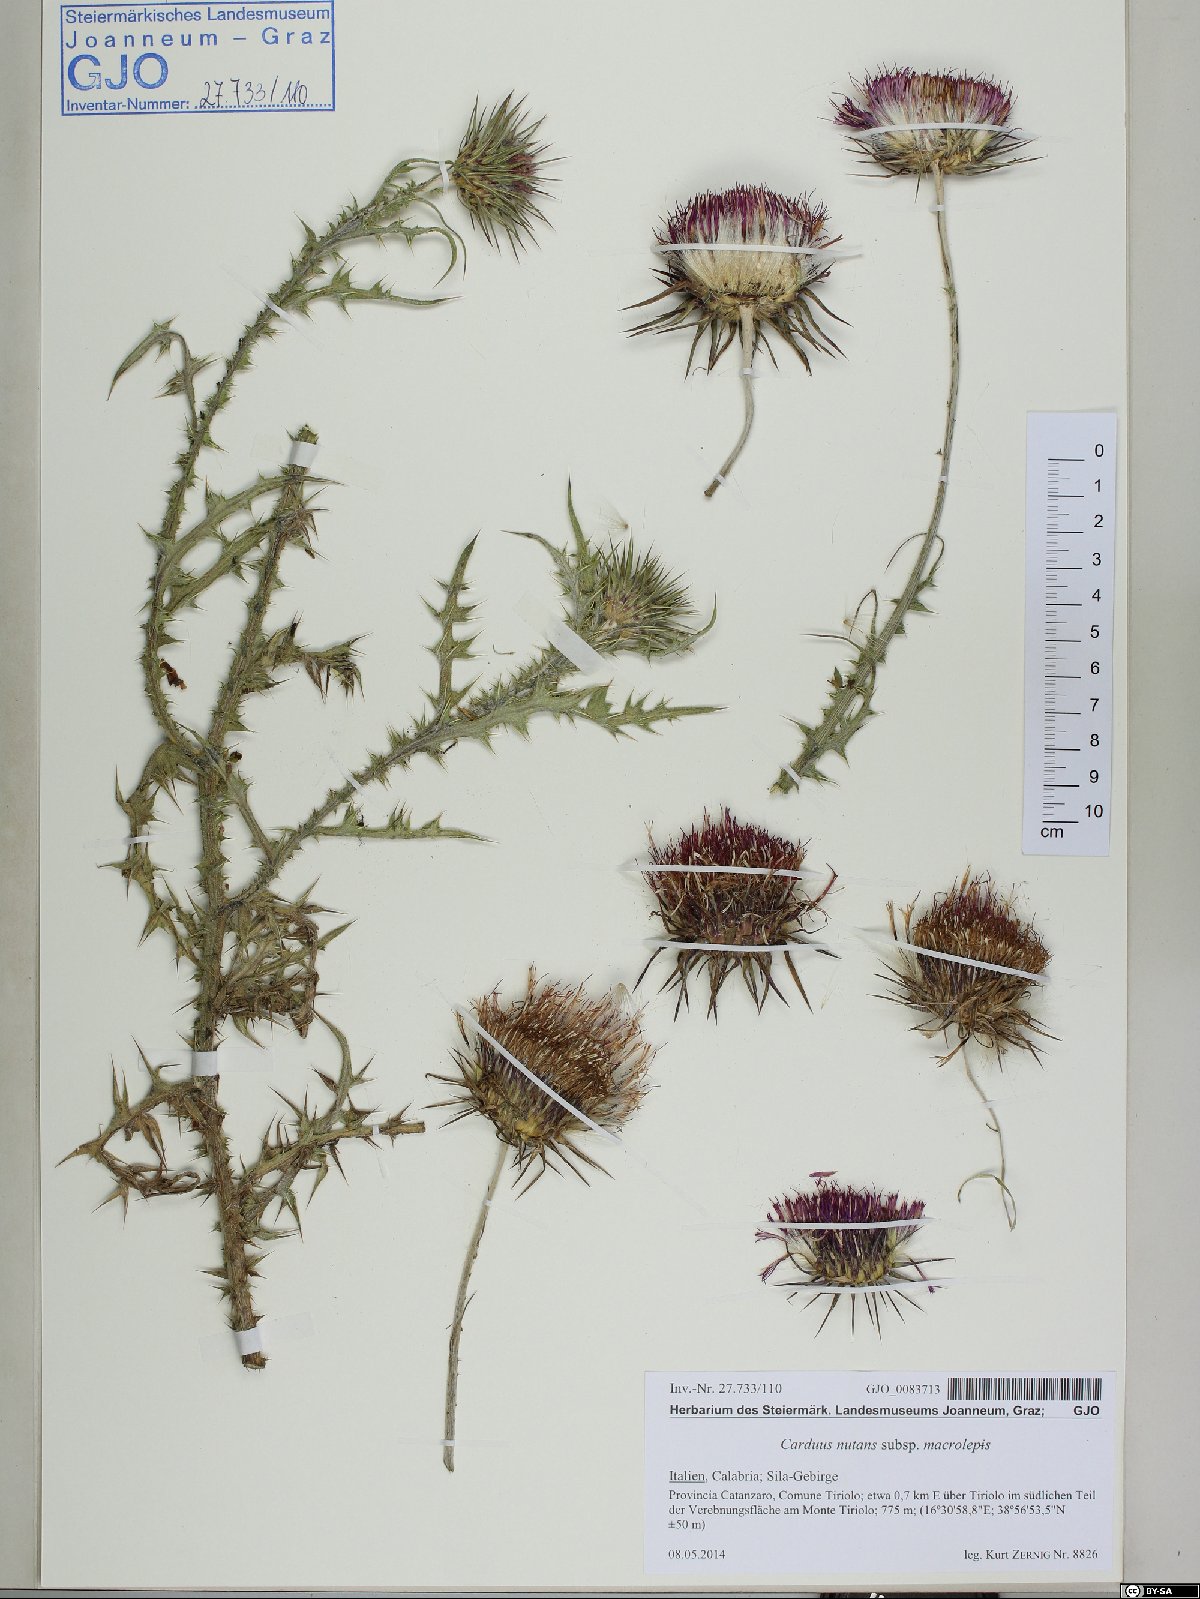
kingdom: Plantae
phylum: Tracheophyta
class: Magnoliopsida
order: Asterales
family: Asteraceae
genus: Carduus
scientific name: Carduus nutans
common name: Musk thistle
